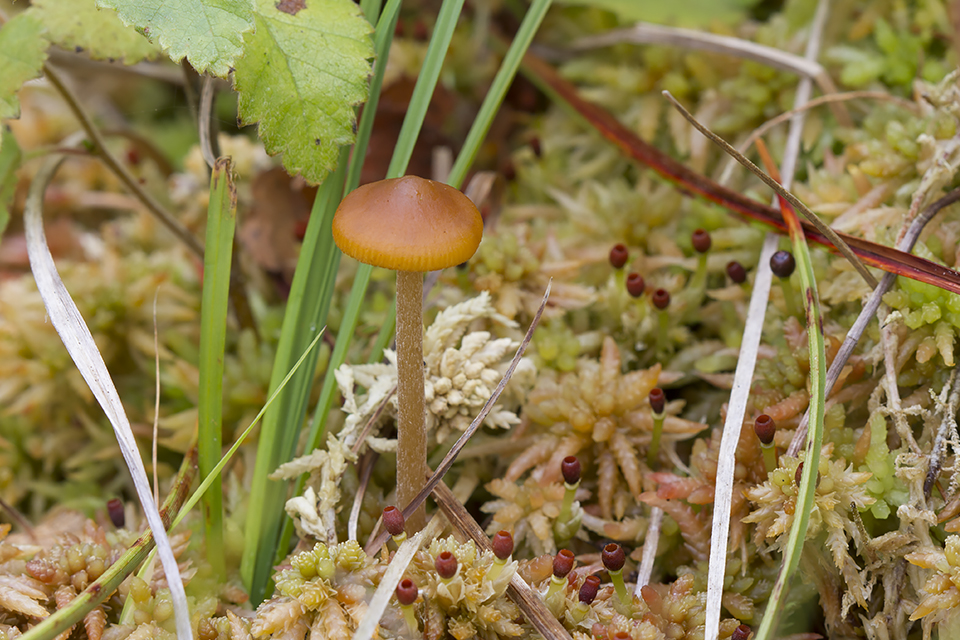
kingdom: Fungi
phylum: Basidiomycota
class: Agaricomycetes
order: Agaricales
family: Hymenogastraceae
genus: Galerina
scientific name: Galerina hybrida
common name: hængesæk-hjelmhat
